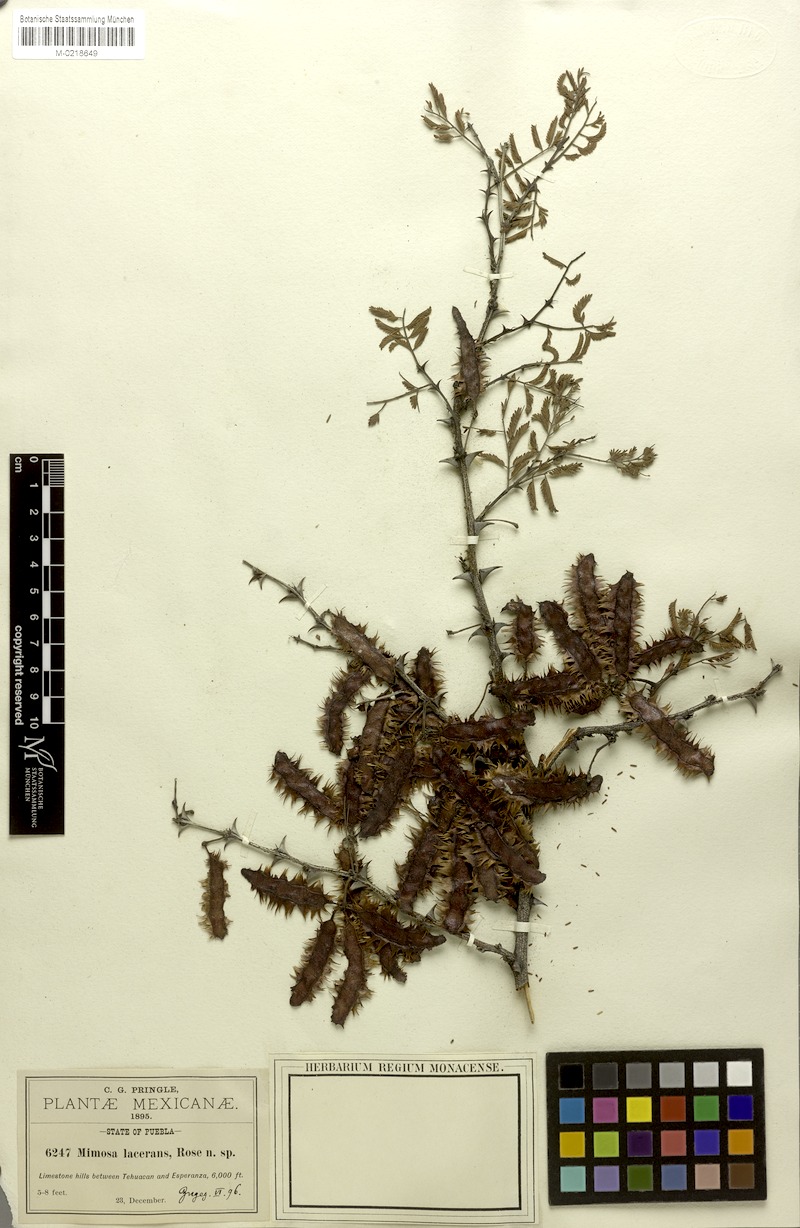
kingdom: Plantae
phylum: Tracheophyta
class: Magnoliopsida
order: Fabales
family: Fabaceae
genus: Mimosa
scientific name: Mimosa lacerata
